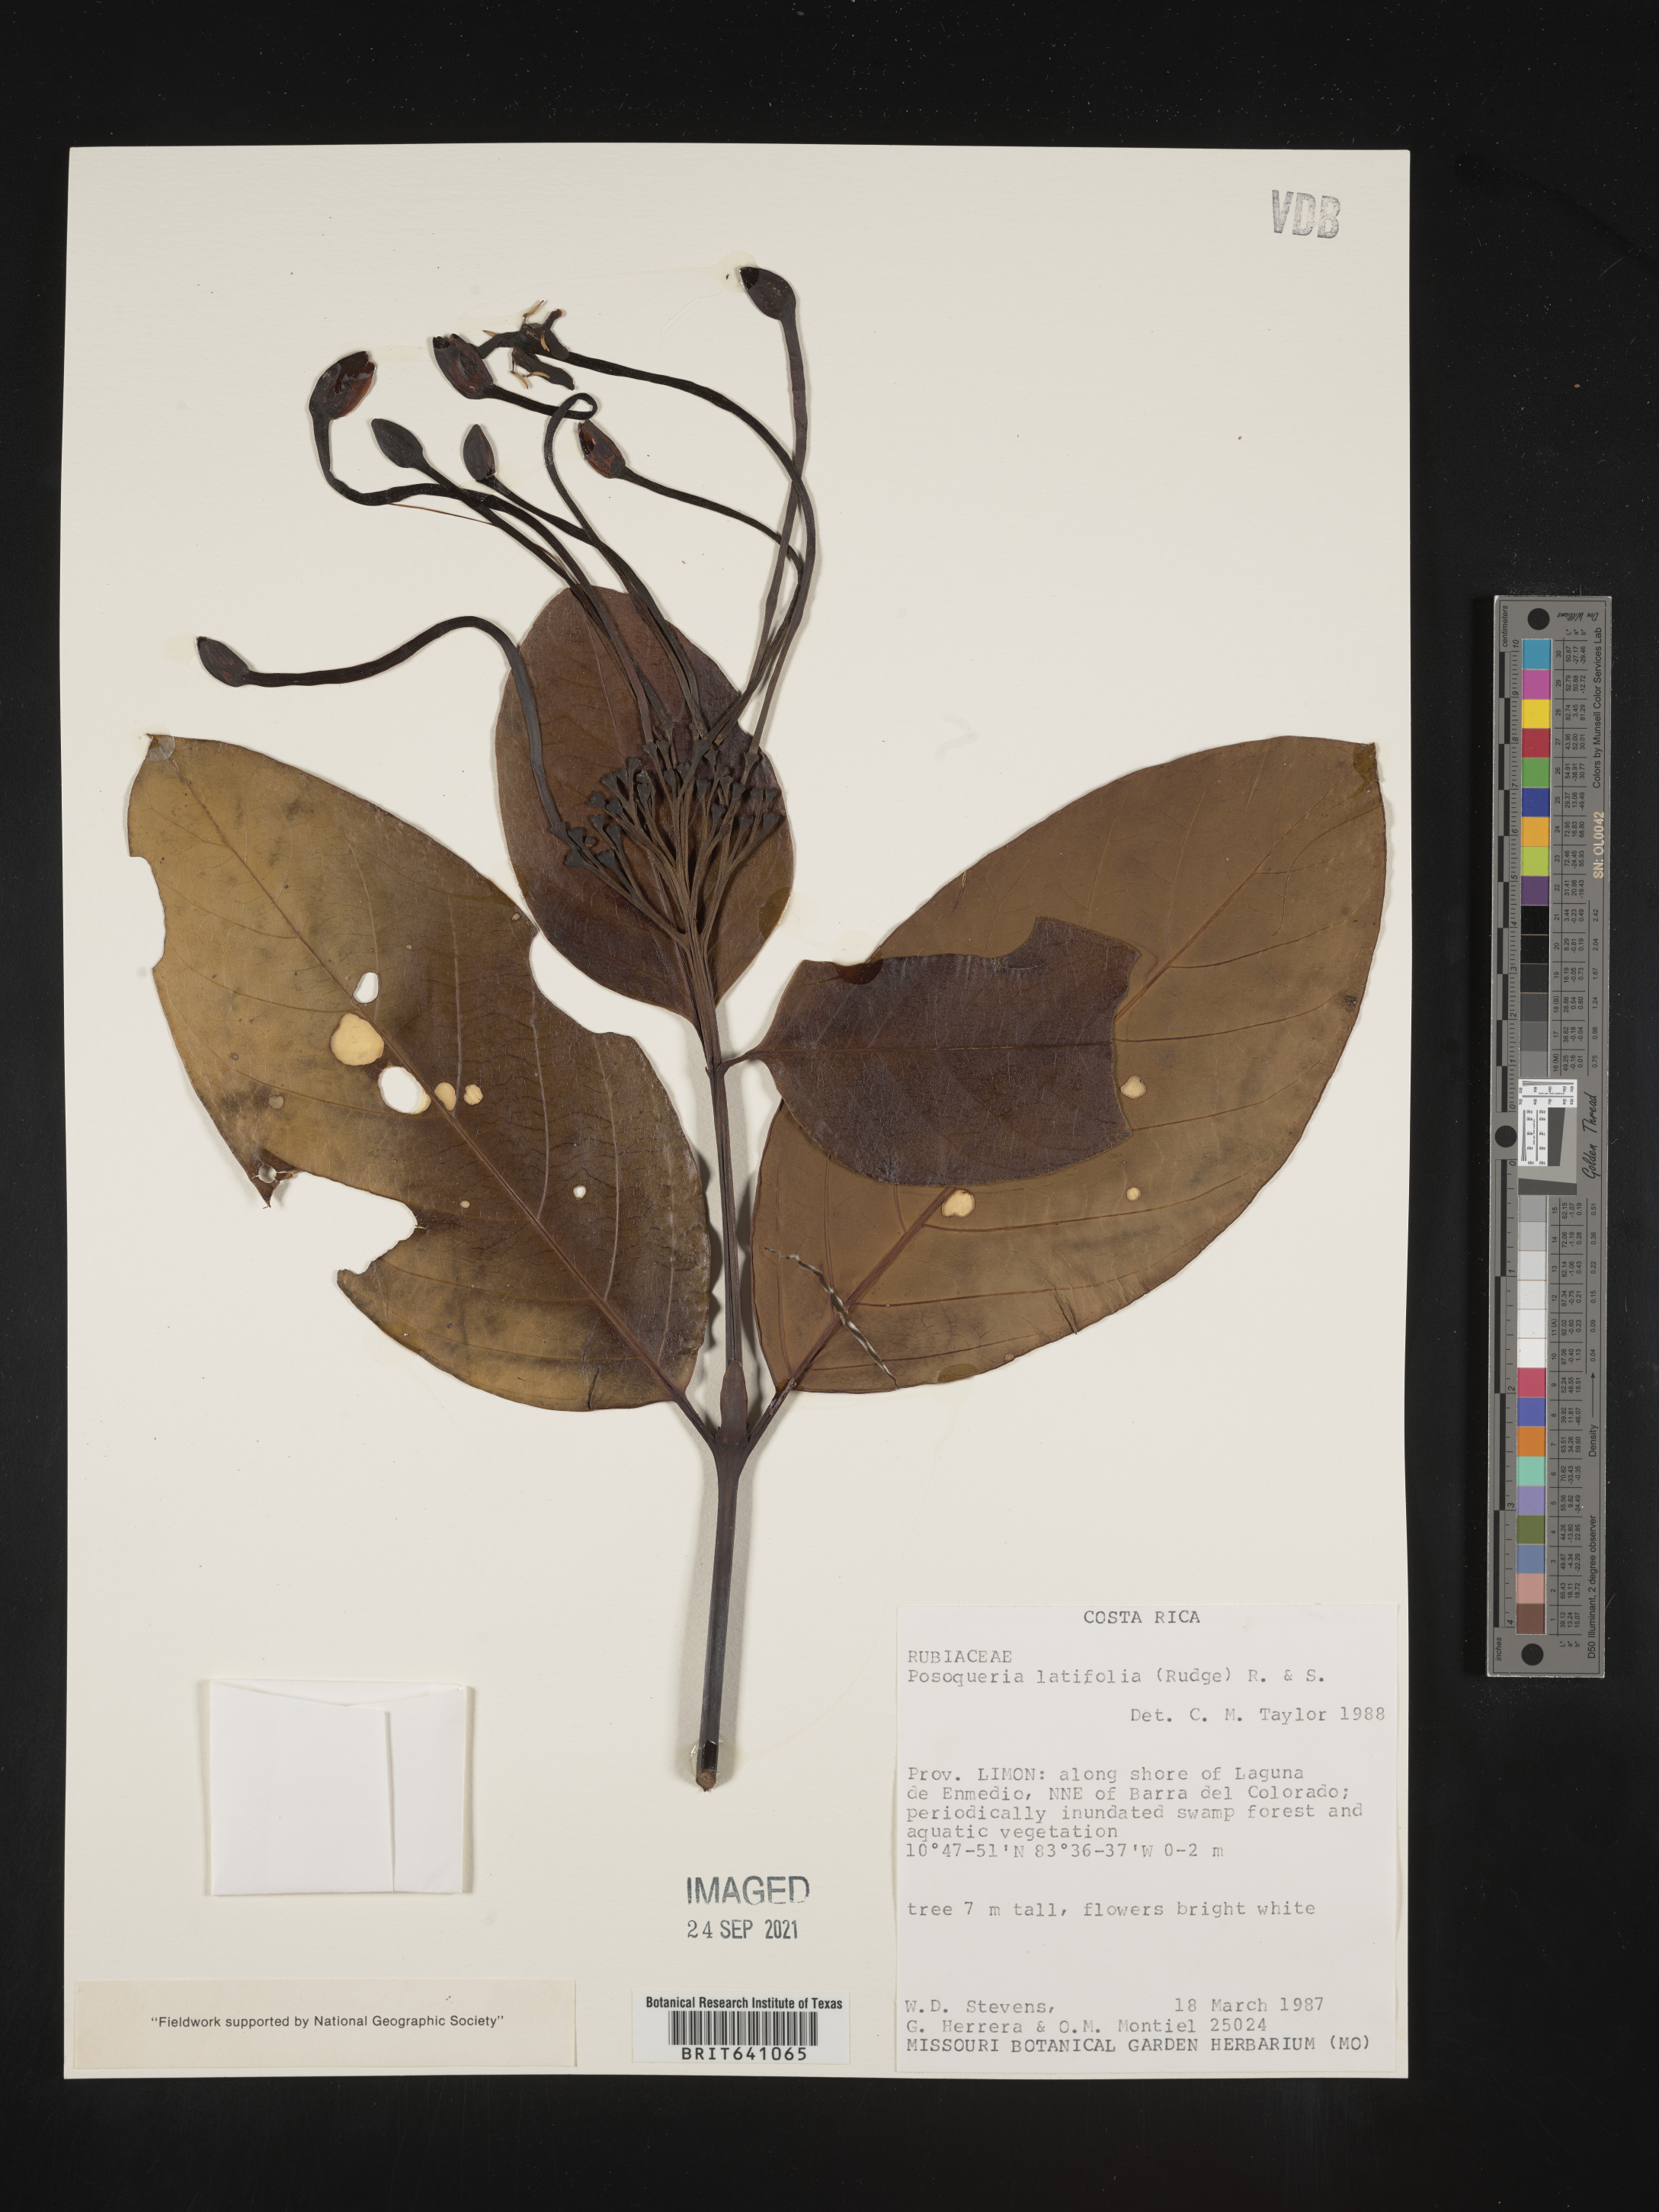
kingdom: Plantae
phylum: Tracheophyta
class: Magnoliopsida
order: Gentianales
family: Rubiaceae
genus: Posoqueria
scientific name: Posoqueria
